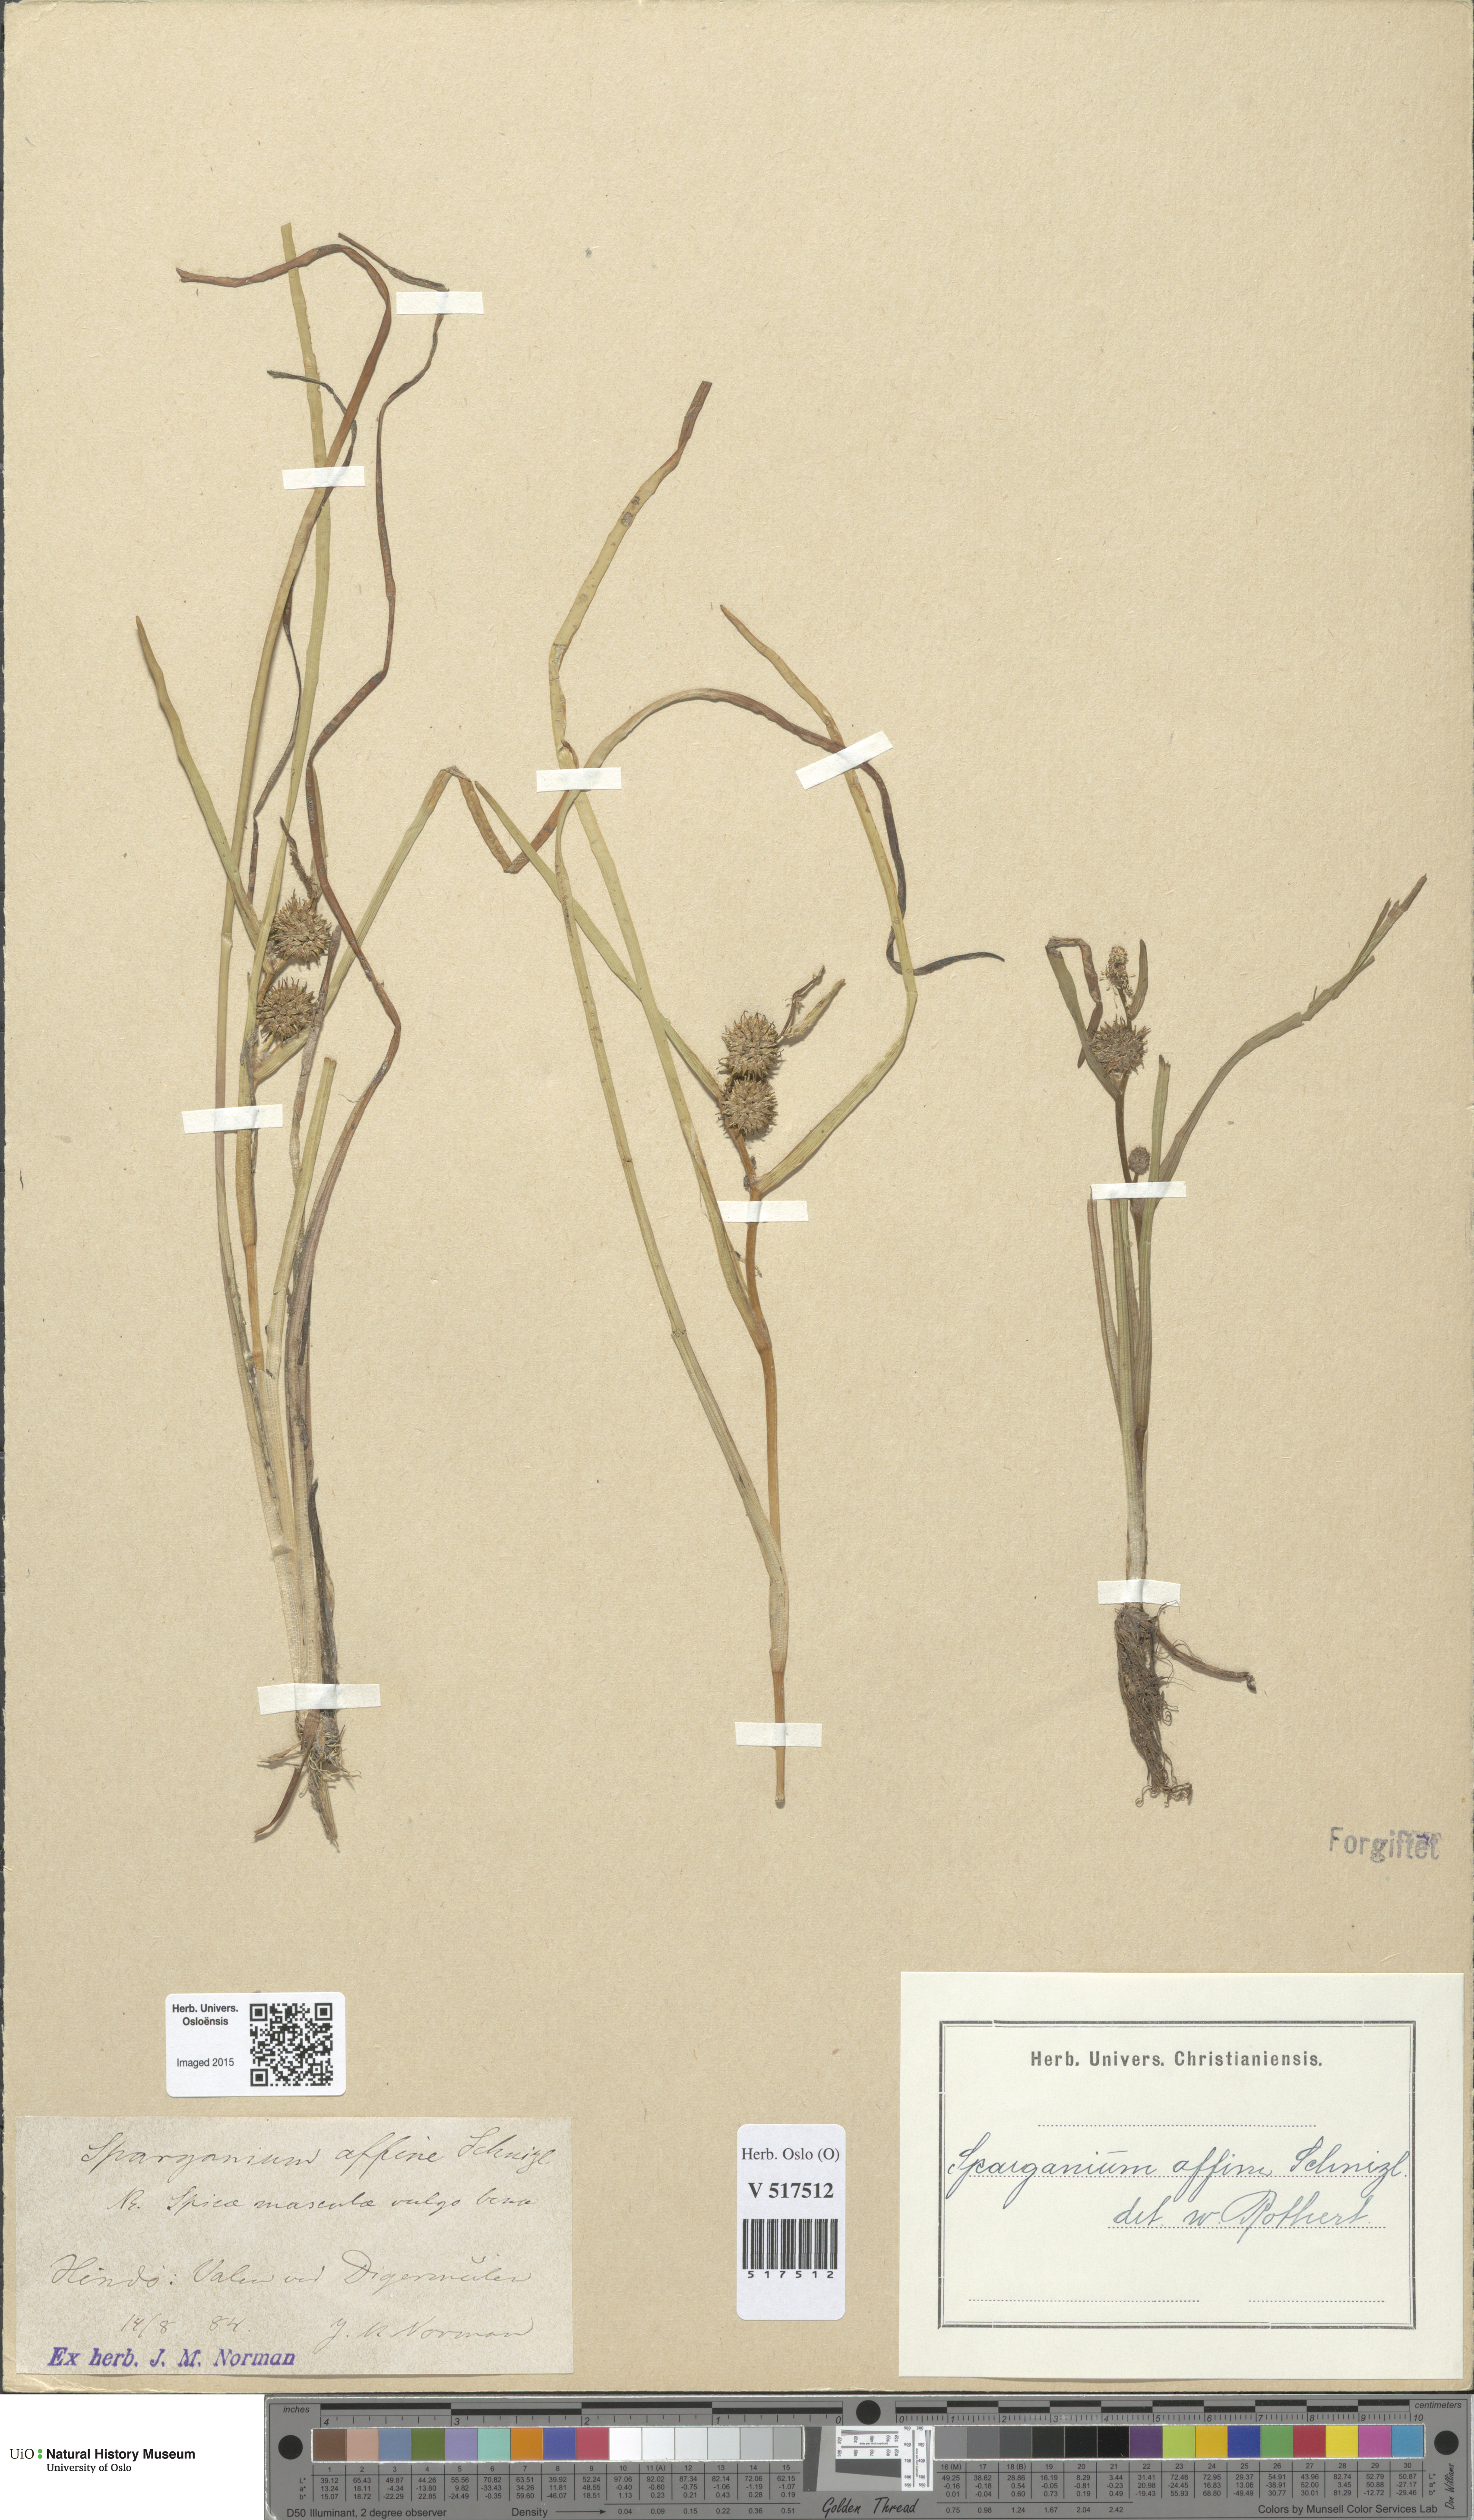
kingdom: Plantae
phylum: Tracheophyta
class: Liliopsida
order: Poales
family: Typhaceae
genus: Sparganium
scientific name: Sparganium angustifolium
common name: Floating bur-reed
